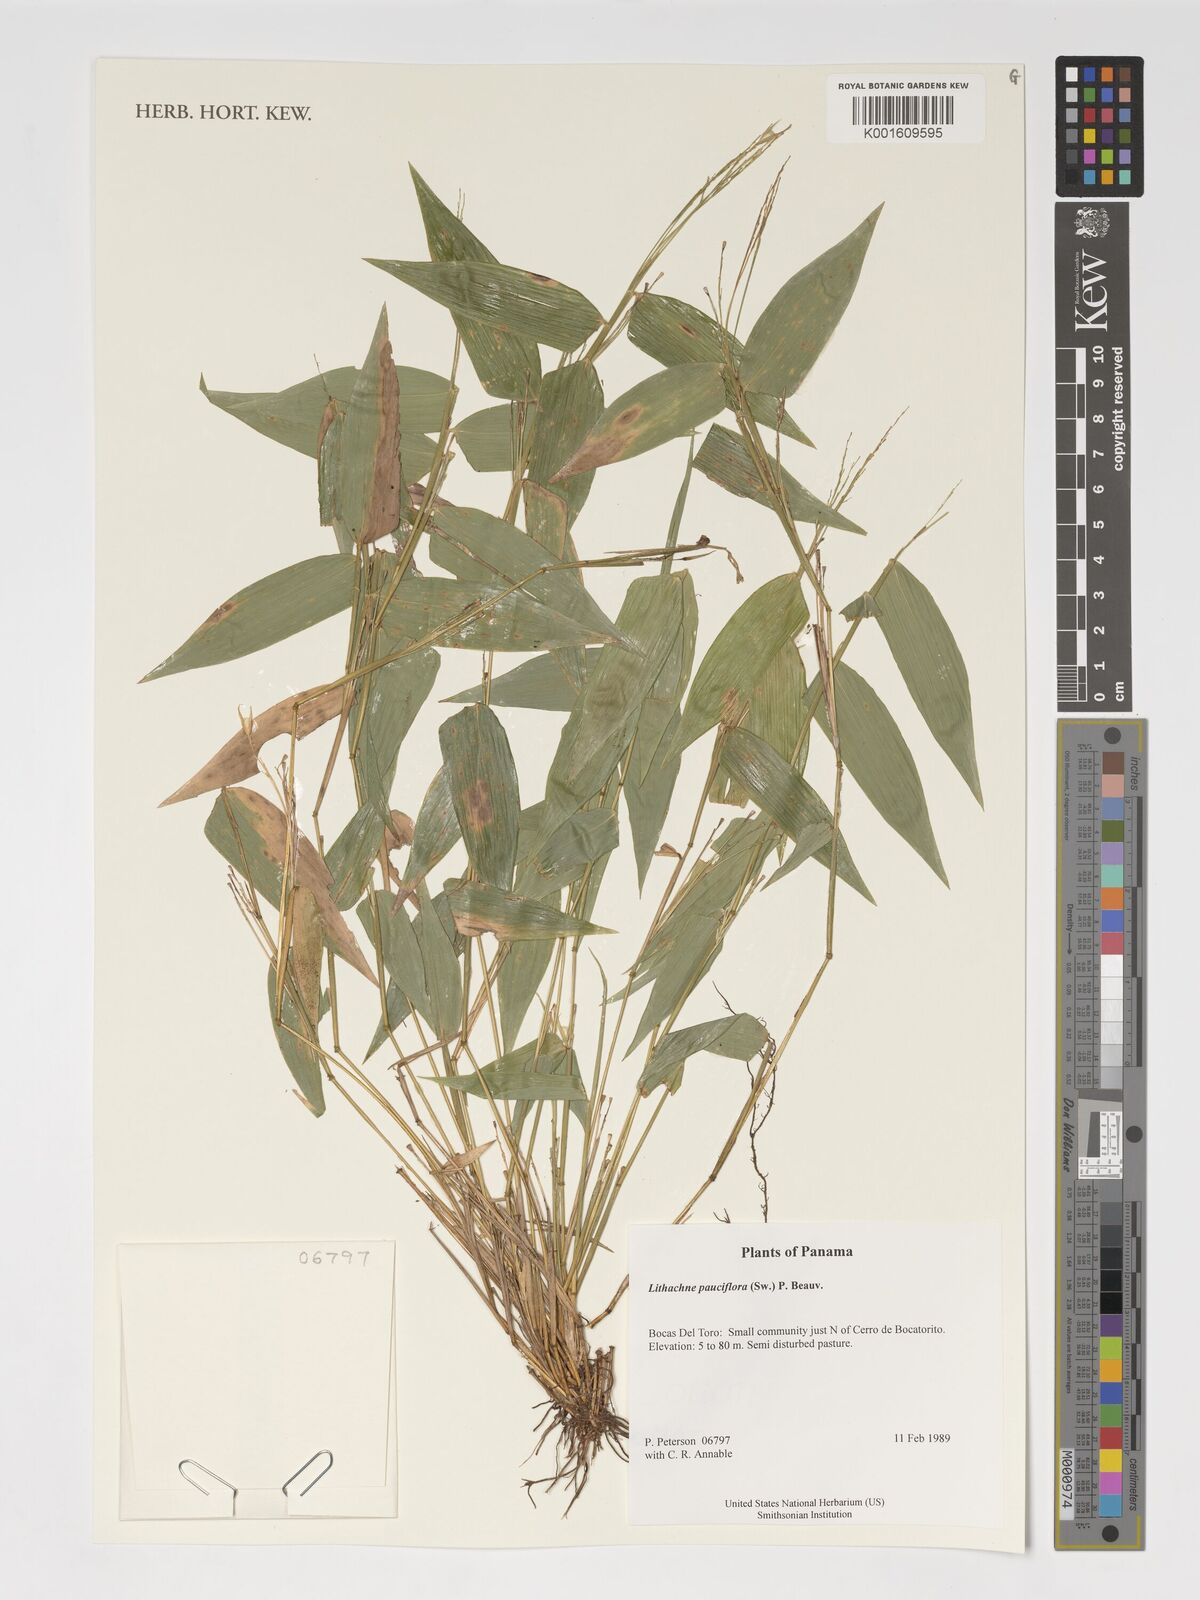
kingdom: Plantae
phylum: Tracheophyta
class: Liliopsida
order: Poales
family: Poaceae
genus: Lithachne
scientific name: Lithachne pauciflora
